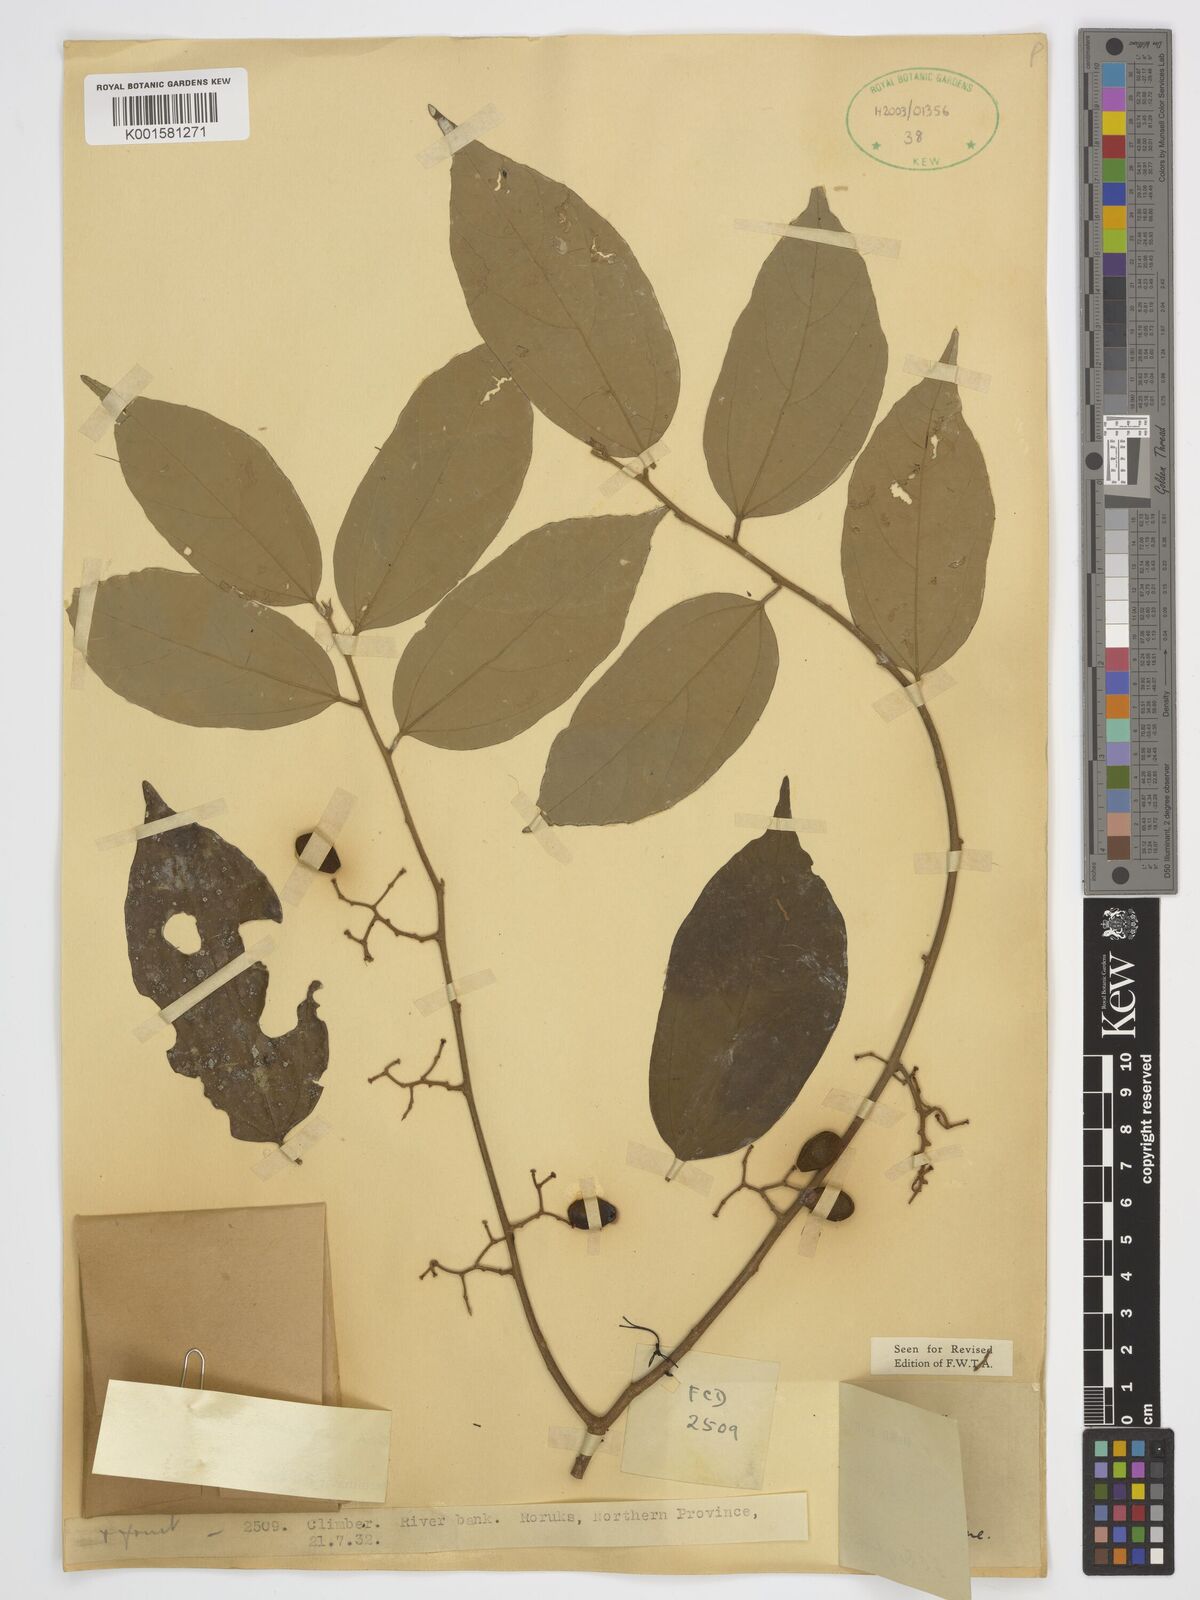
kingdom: Plantae
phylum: Tracheophyta
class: Magnoliopsida
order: Malvales
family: Malvaceae
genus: Microcos
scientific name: Microcos malacocarpa
